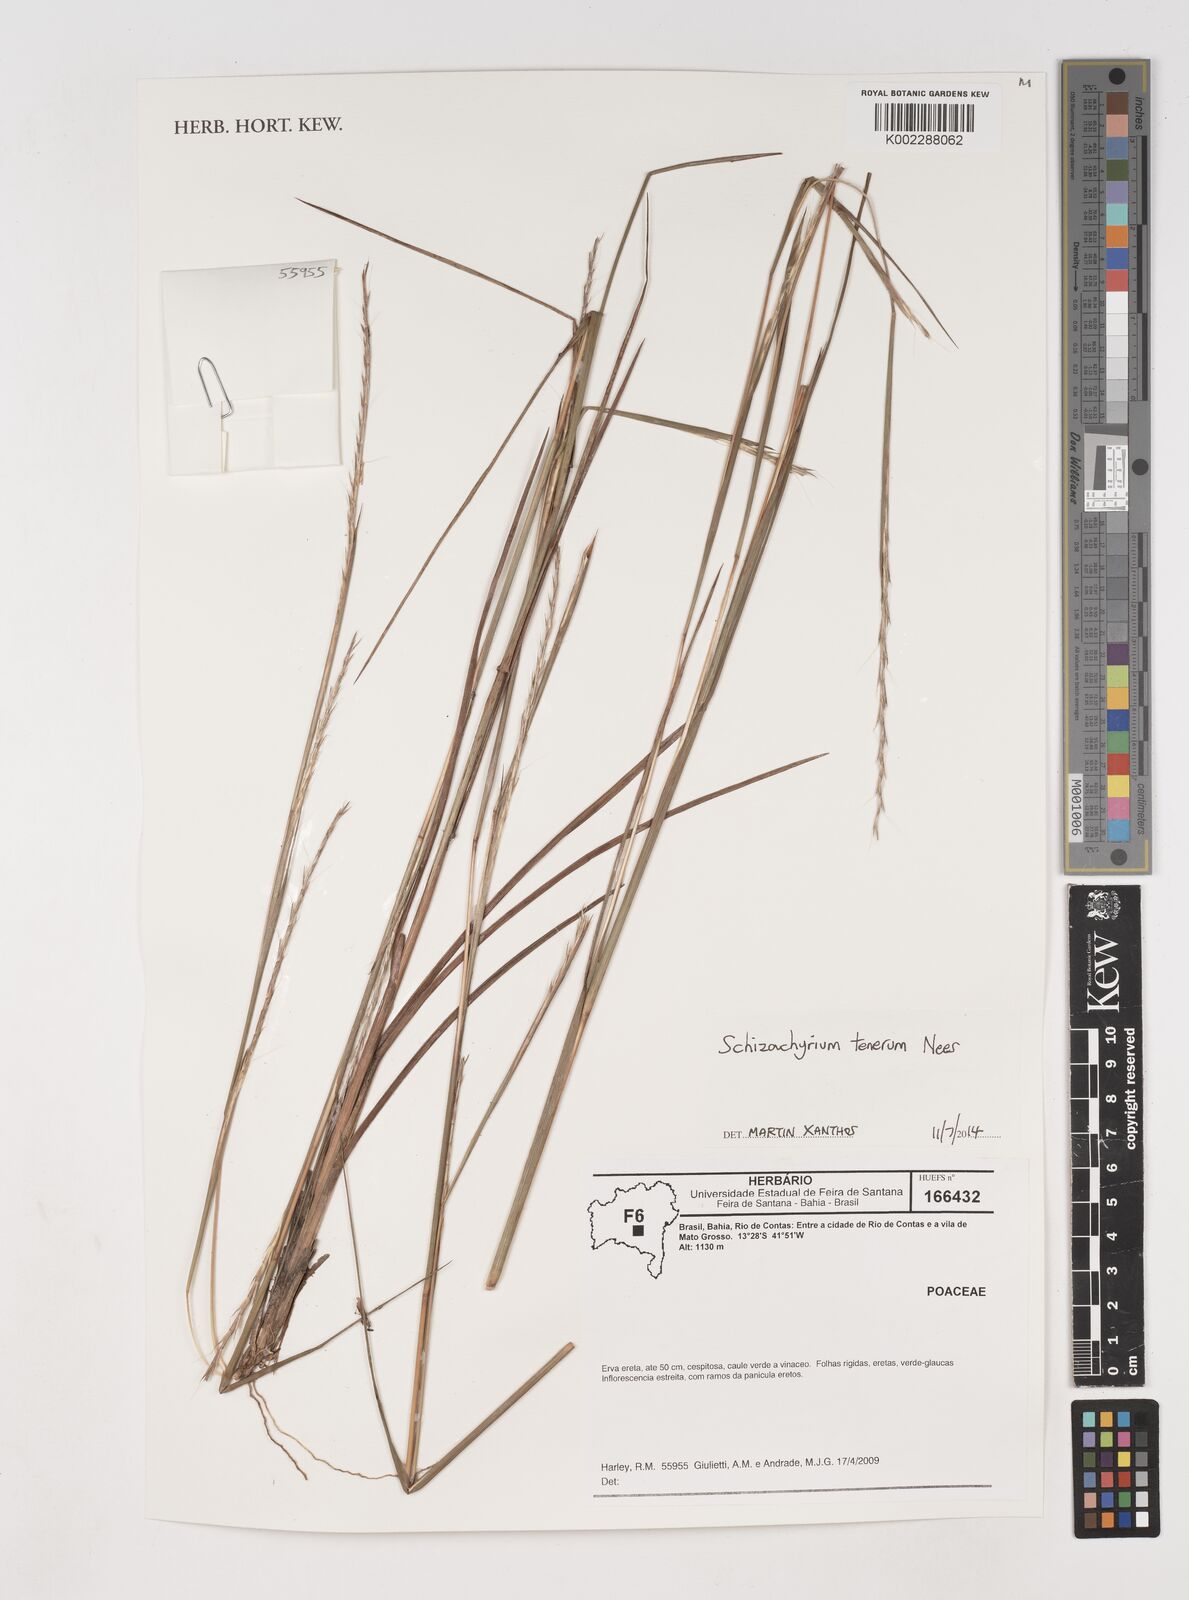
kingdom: Plantae
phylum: Tracheophyta
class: Liliopsida
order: Poales
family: Poaceae
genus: Schizachyrium
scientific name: Schizachyrium sanguineum
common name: Crimson bluestem
